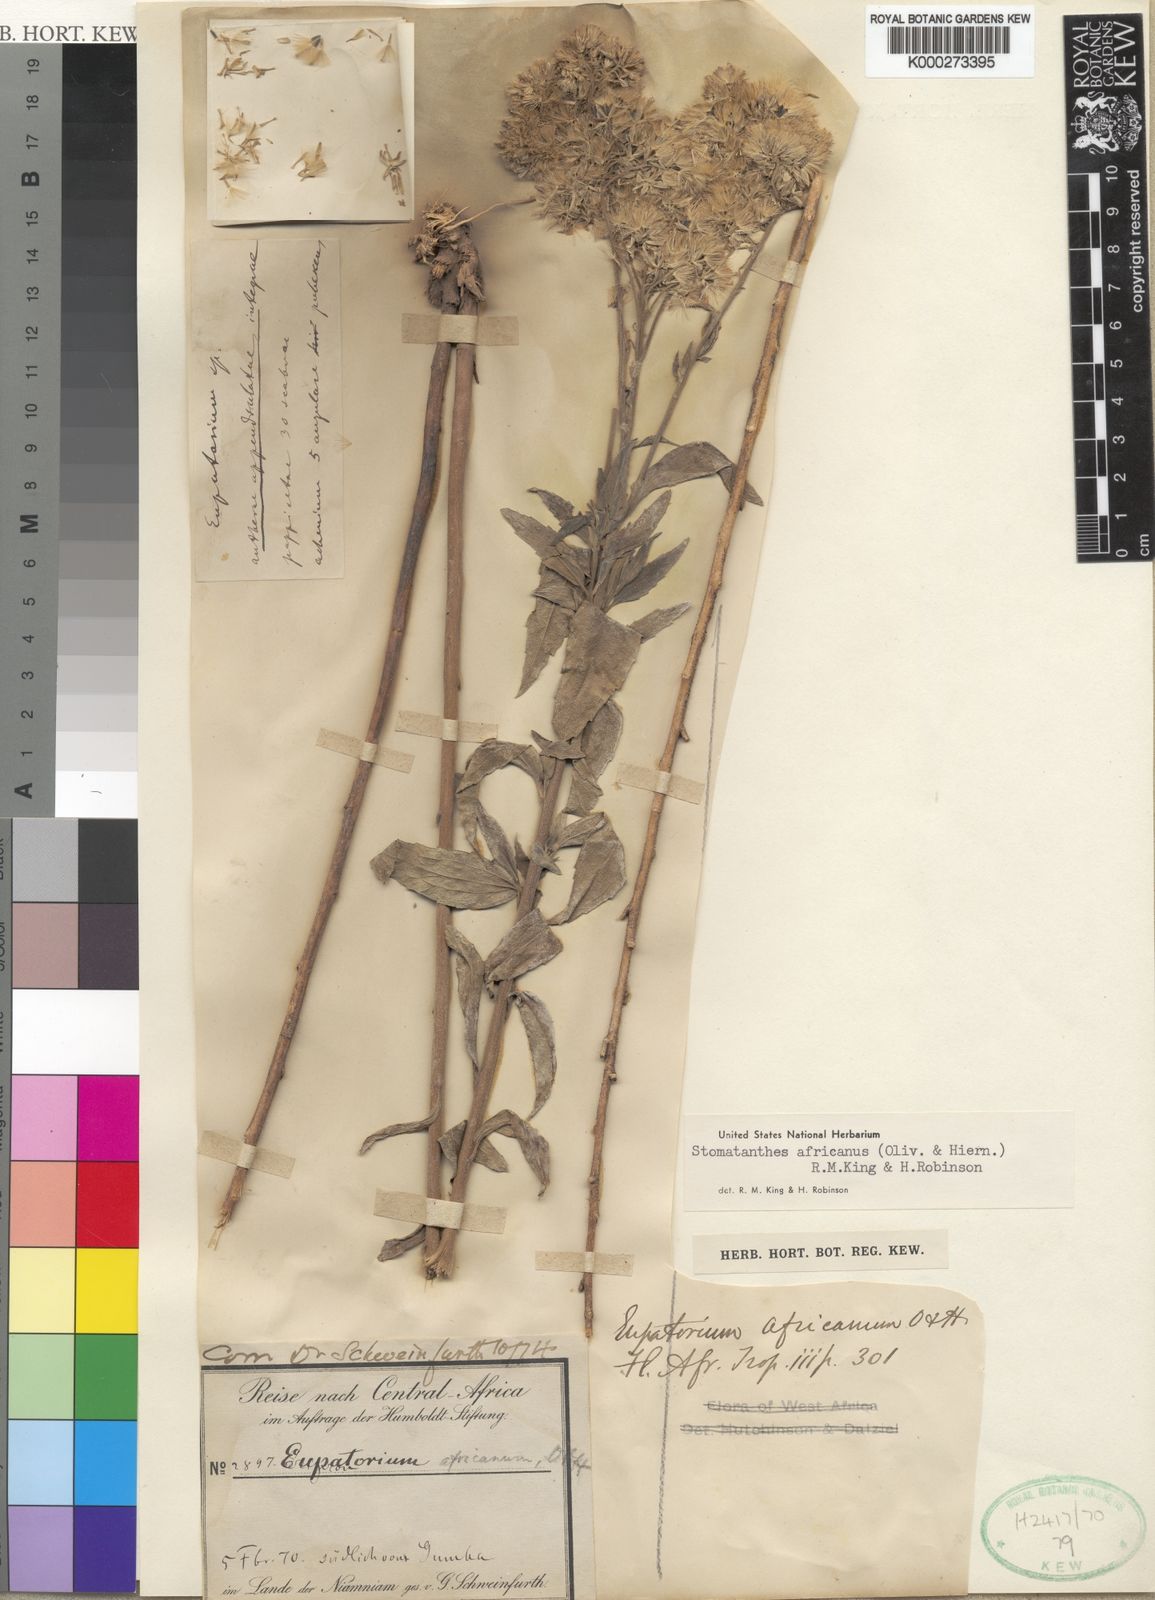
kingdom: Plantae
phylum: Tracheophyta
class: Magnoliopsida
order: Asterales
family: Asteraceae
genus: Stomatanthes
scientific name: Stomatanthes africanus
